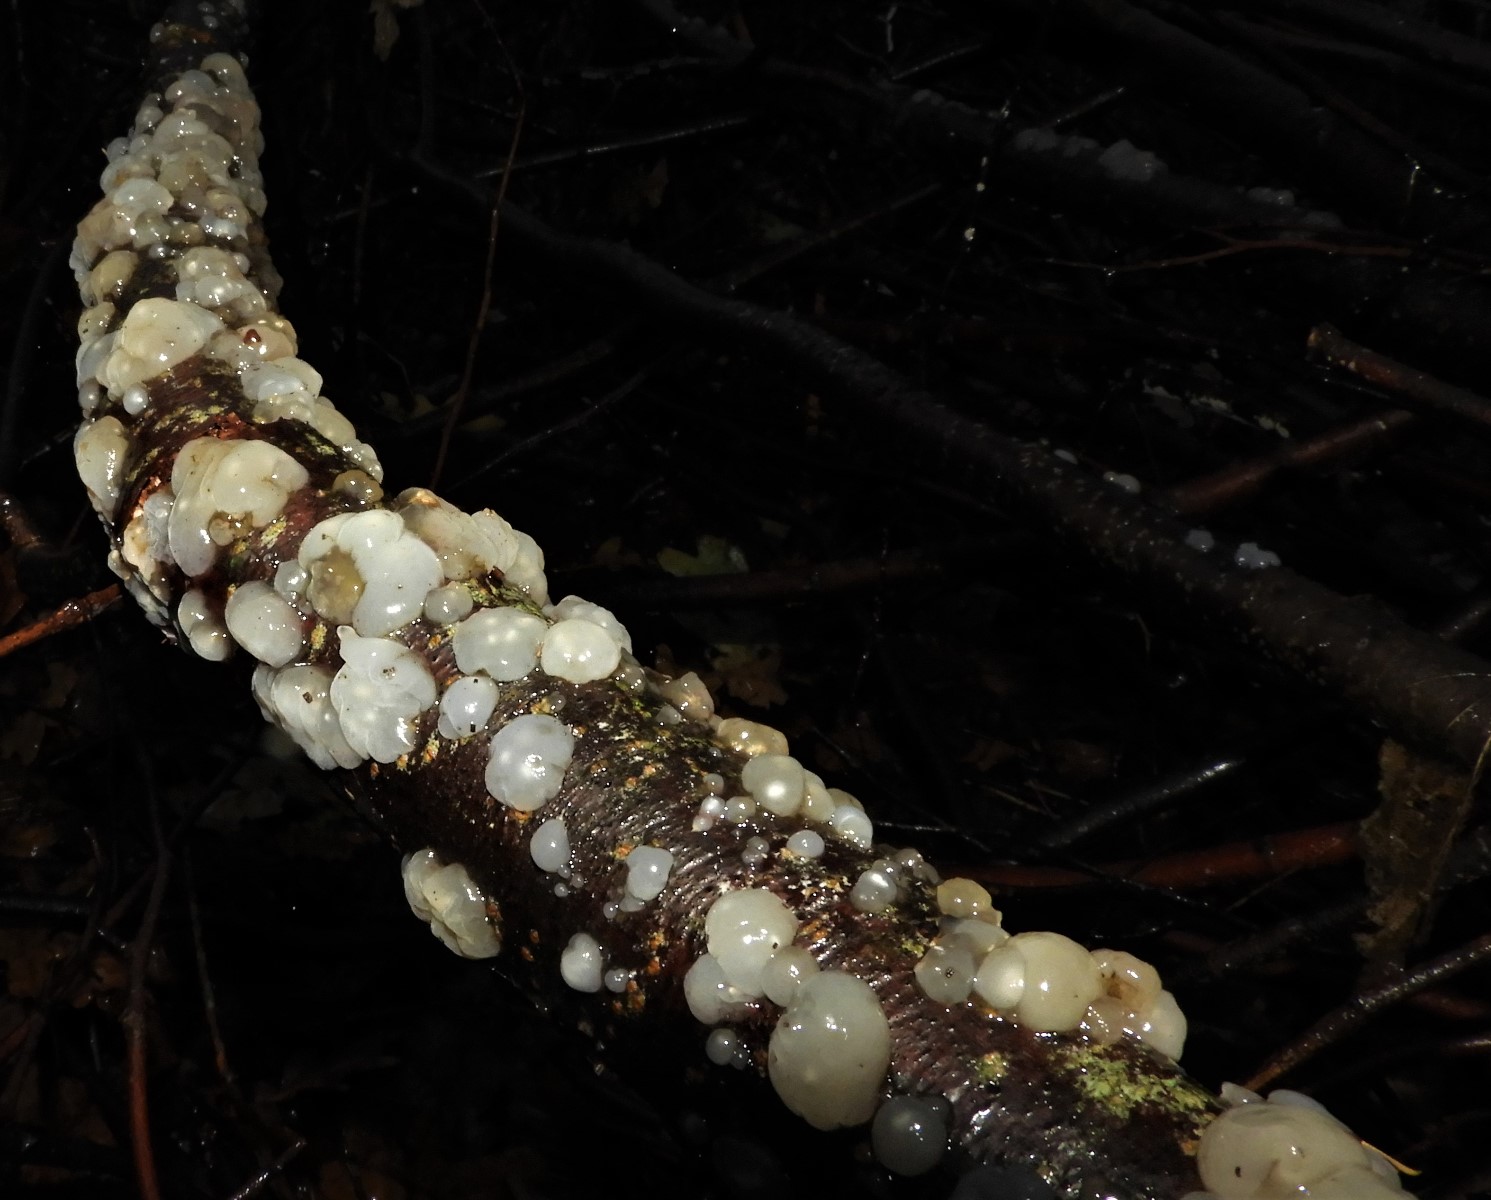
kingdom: Fungi
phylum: Basidiomycota
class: Agaricomycetes
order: Auriculariales
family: Hyaloriaceae
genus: Myxarium
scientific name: Myxarium nucleatum
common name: klar bævretop
